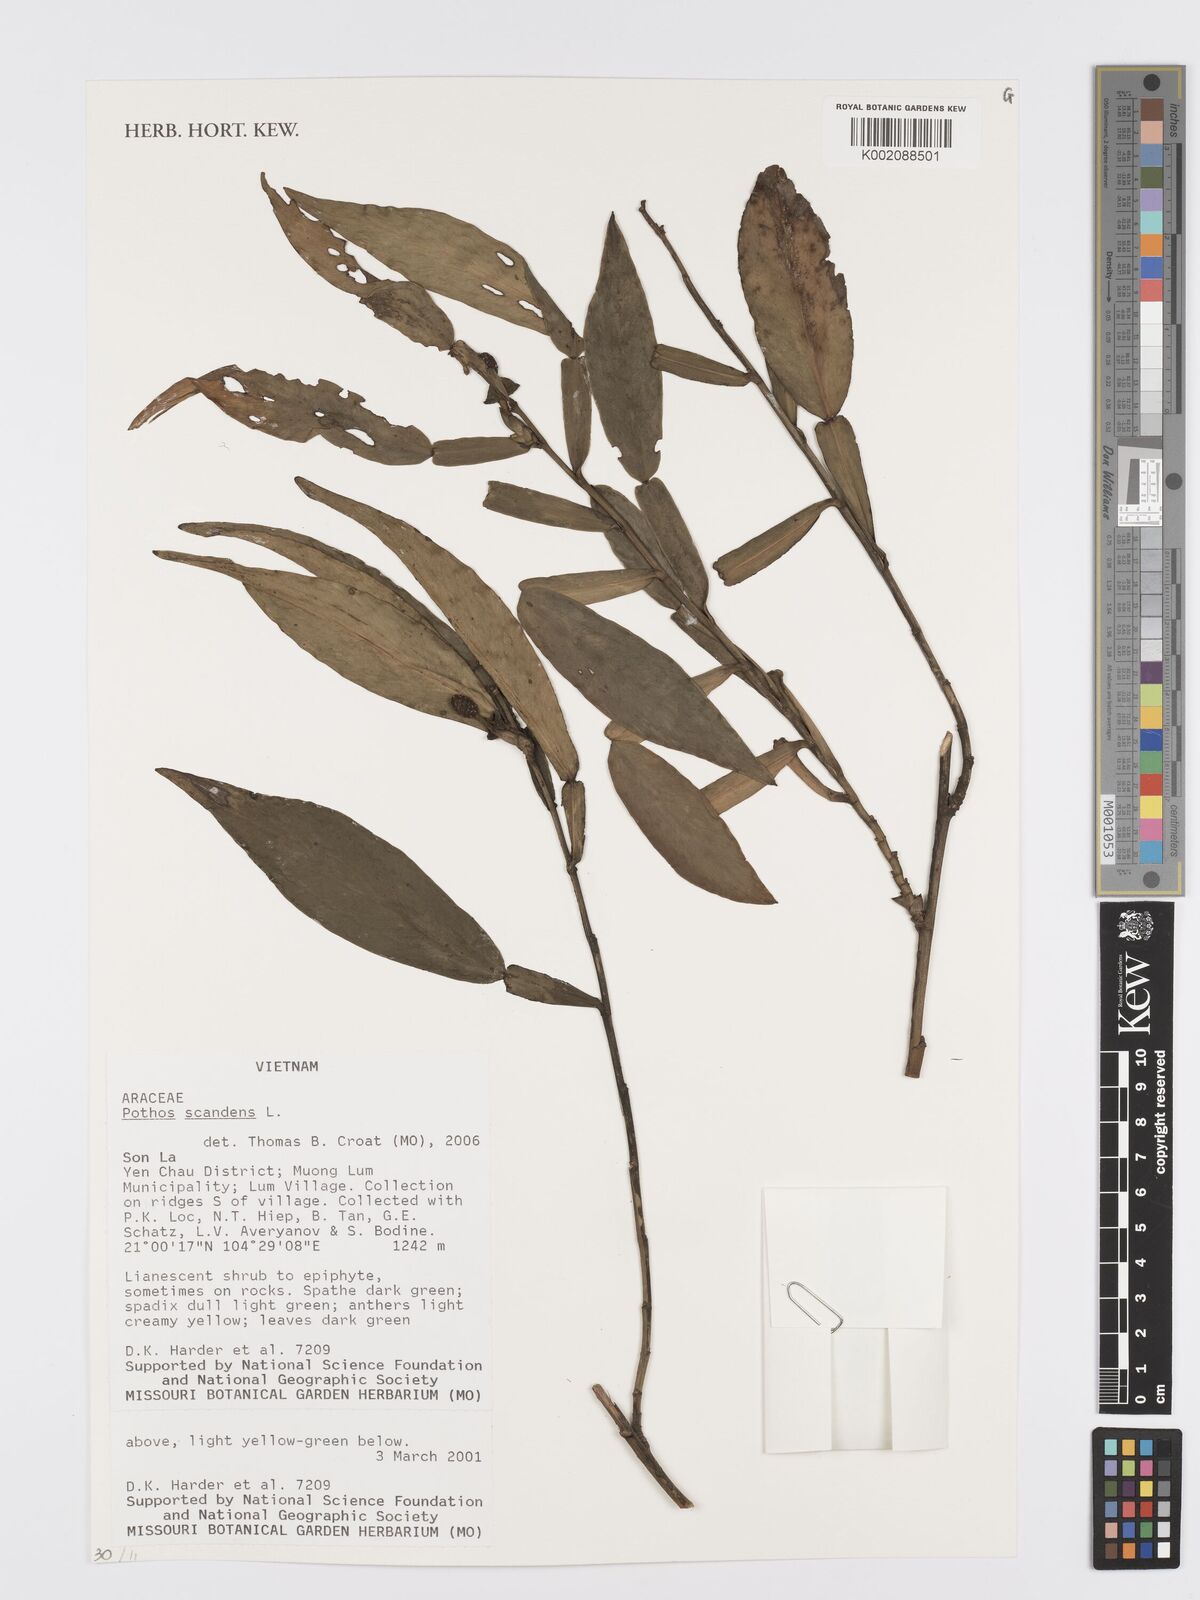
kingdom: Plantae
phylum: Tracheophyta
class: Liliopsida
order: Alismatales
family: Araceae
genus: Pothos
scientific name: Pothos scandens
